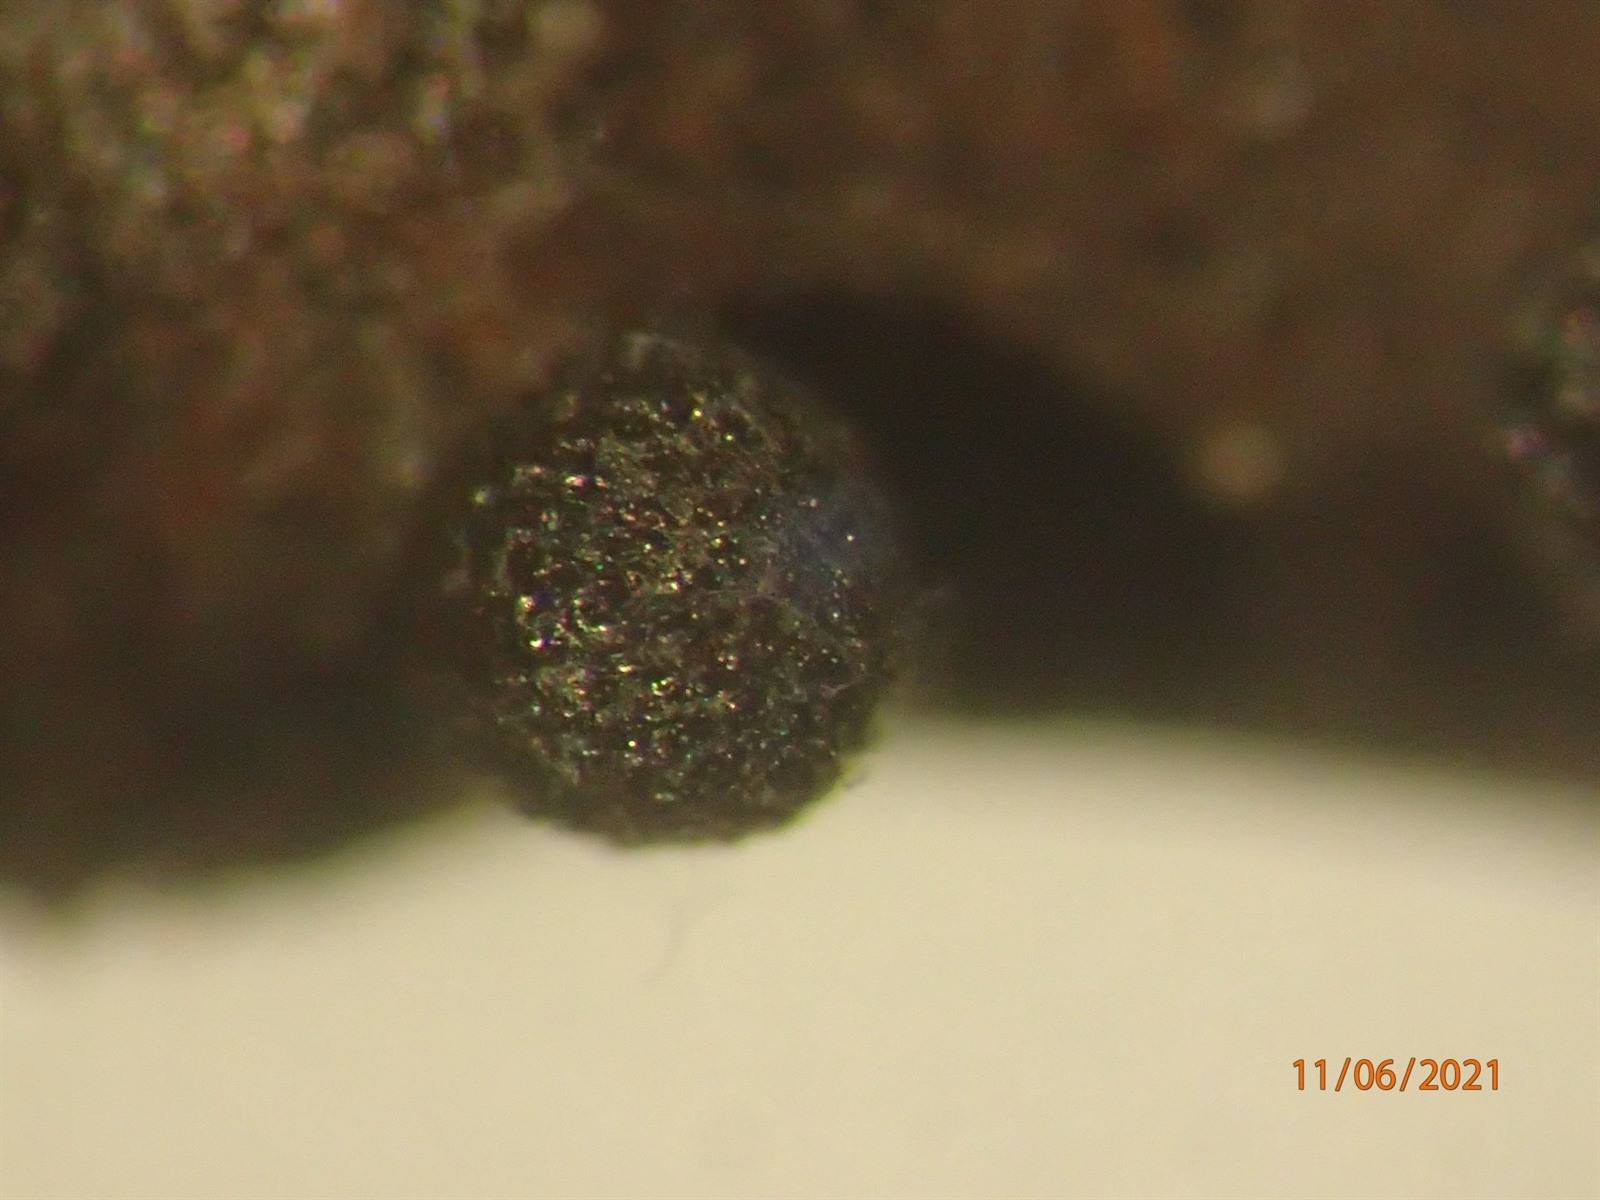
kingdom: Protozoa
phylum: Mycetozoa
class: Myxomycetes
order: Stemonitidales
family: Stemonitidaceae
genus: Lamproderma
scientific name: Lamproderma macrosporum
